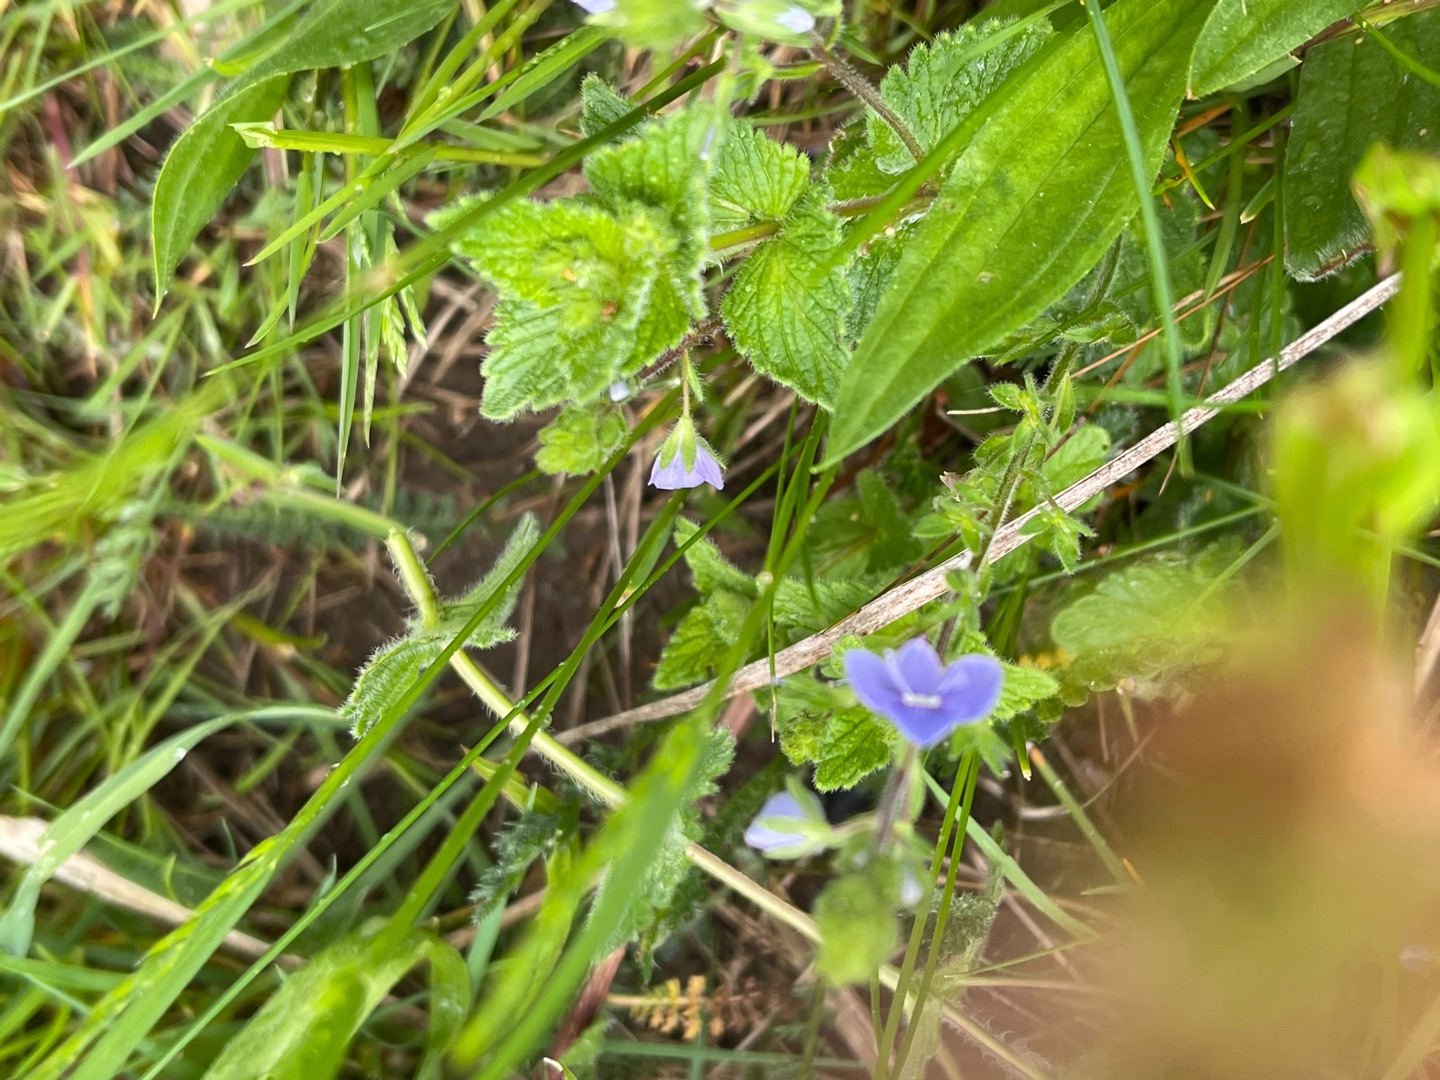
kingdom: Plantae
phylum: Tracheophyta
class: Magnoliopsida
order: Lamiales
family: Plantaginaceae
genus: Veronica
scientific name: Veronica chamaedrys
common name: Tveskægget ærenpris
